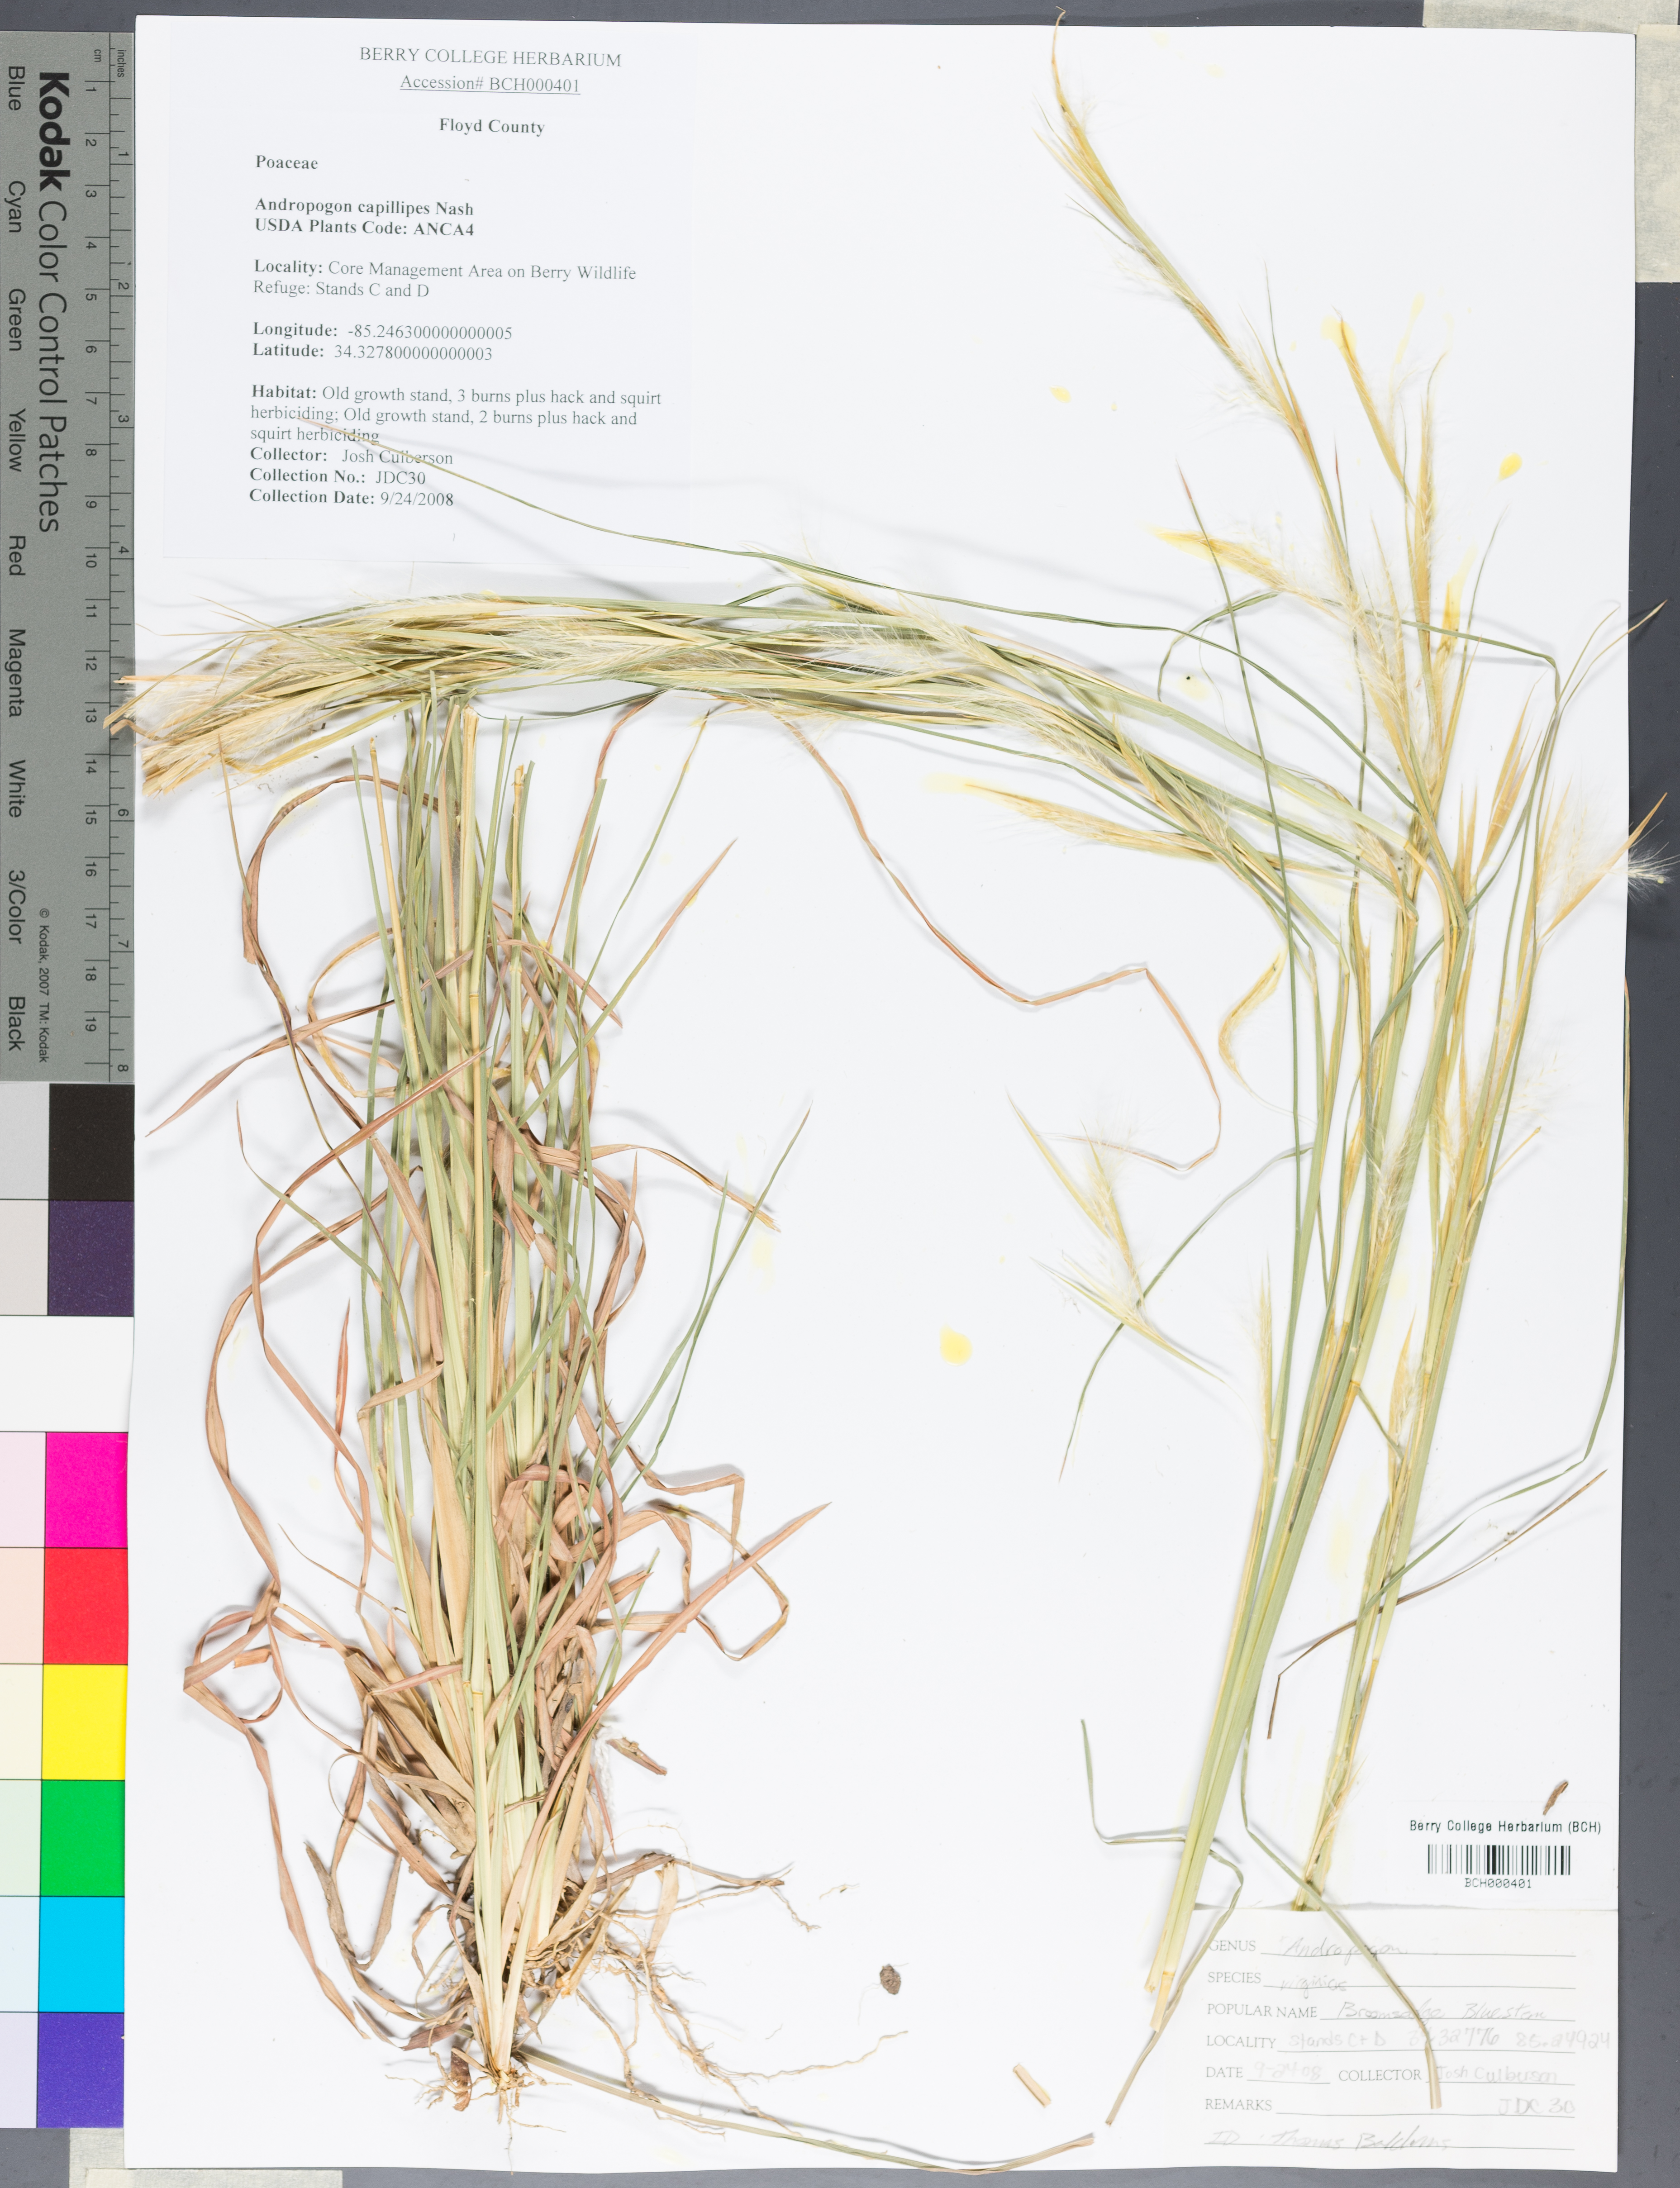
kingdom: Plantae
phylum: Tracheophyta
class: Liliopsida
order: Poales
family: Poaceae
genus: Andropogon
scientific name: Andropogon capillipes
